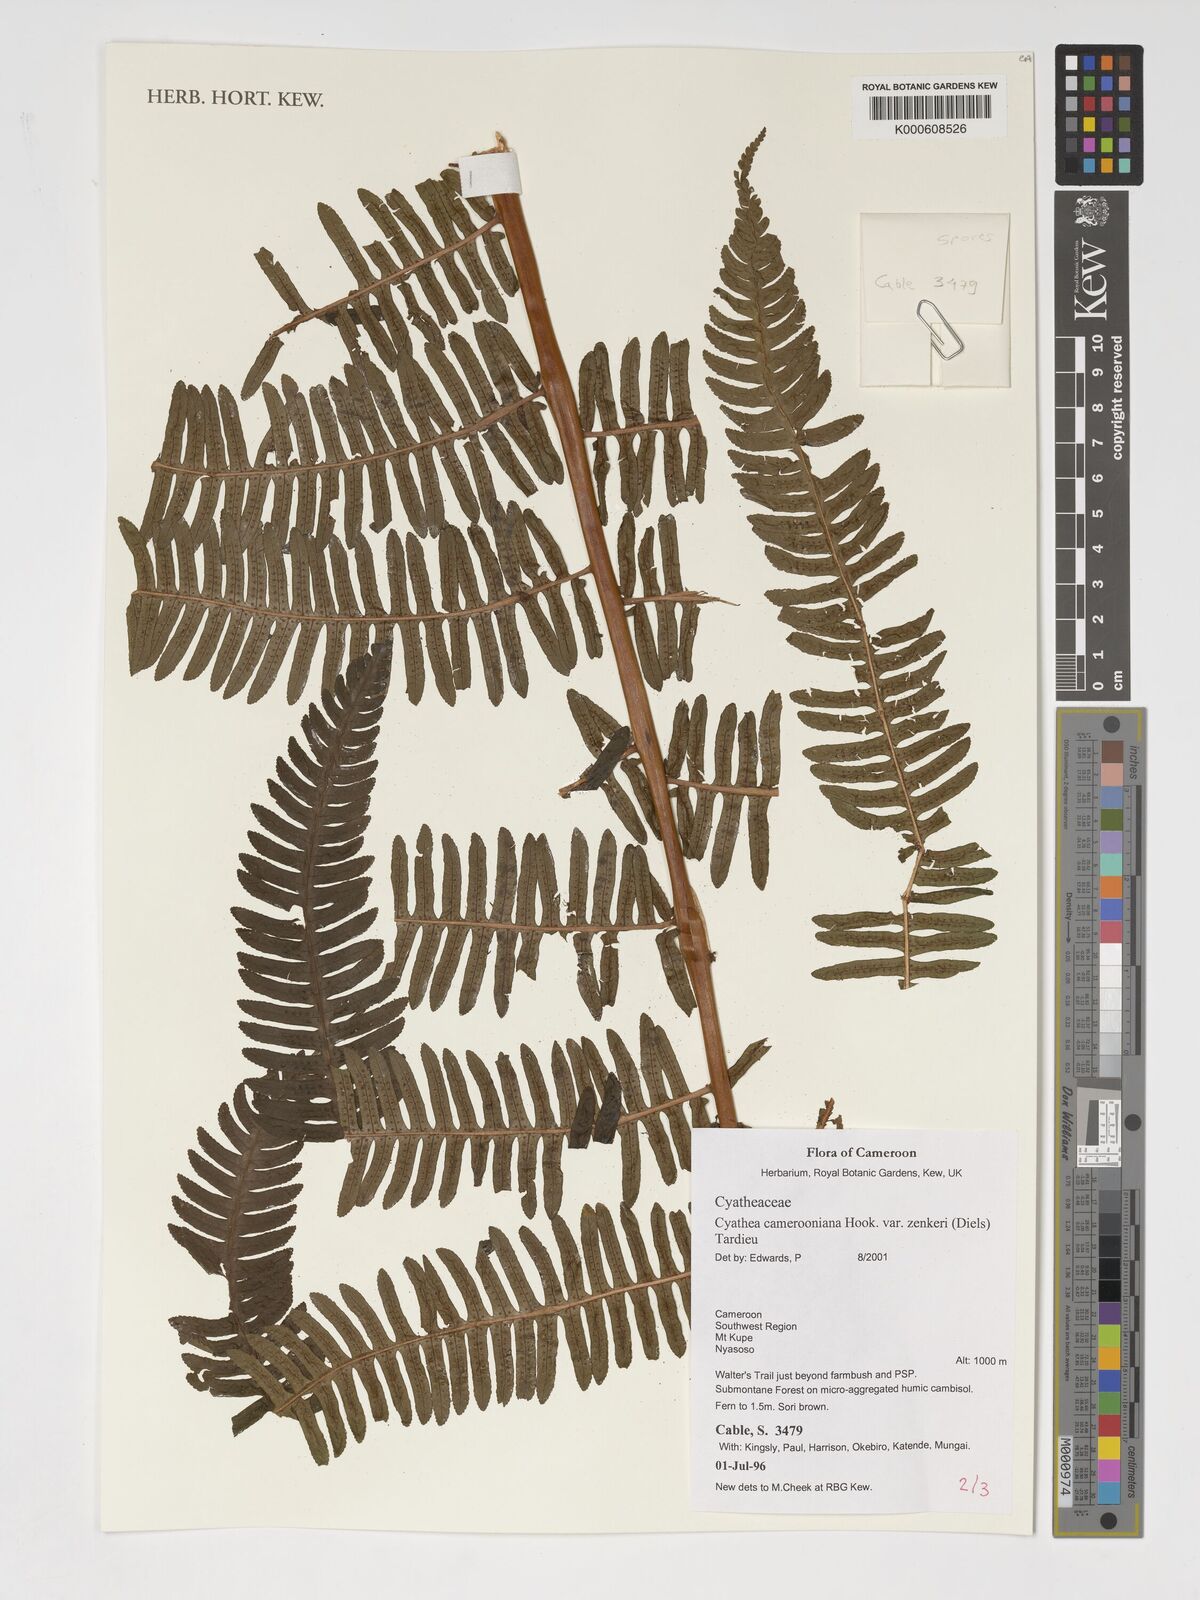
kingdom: Plantae
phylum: Tracheophyta
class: Polypodiopsida
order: Cyatheales
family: Cyatheaceae
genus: Alsophila
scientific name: Alsophila camerooniana
